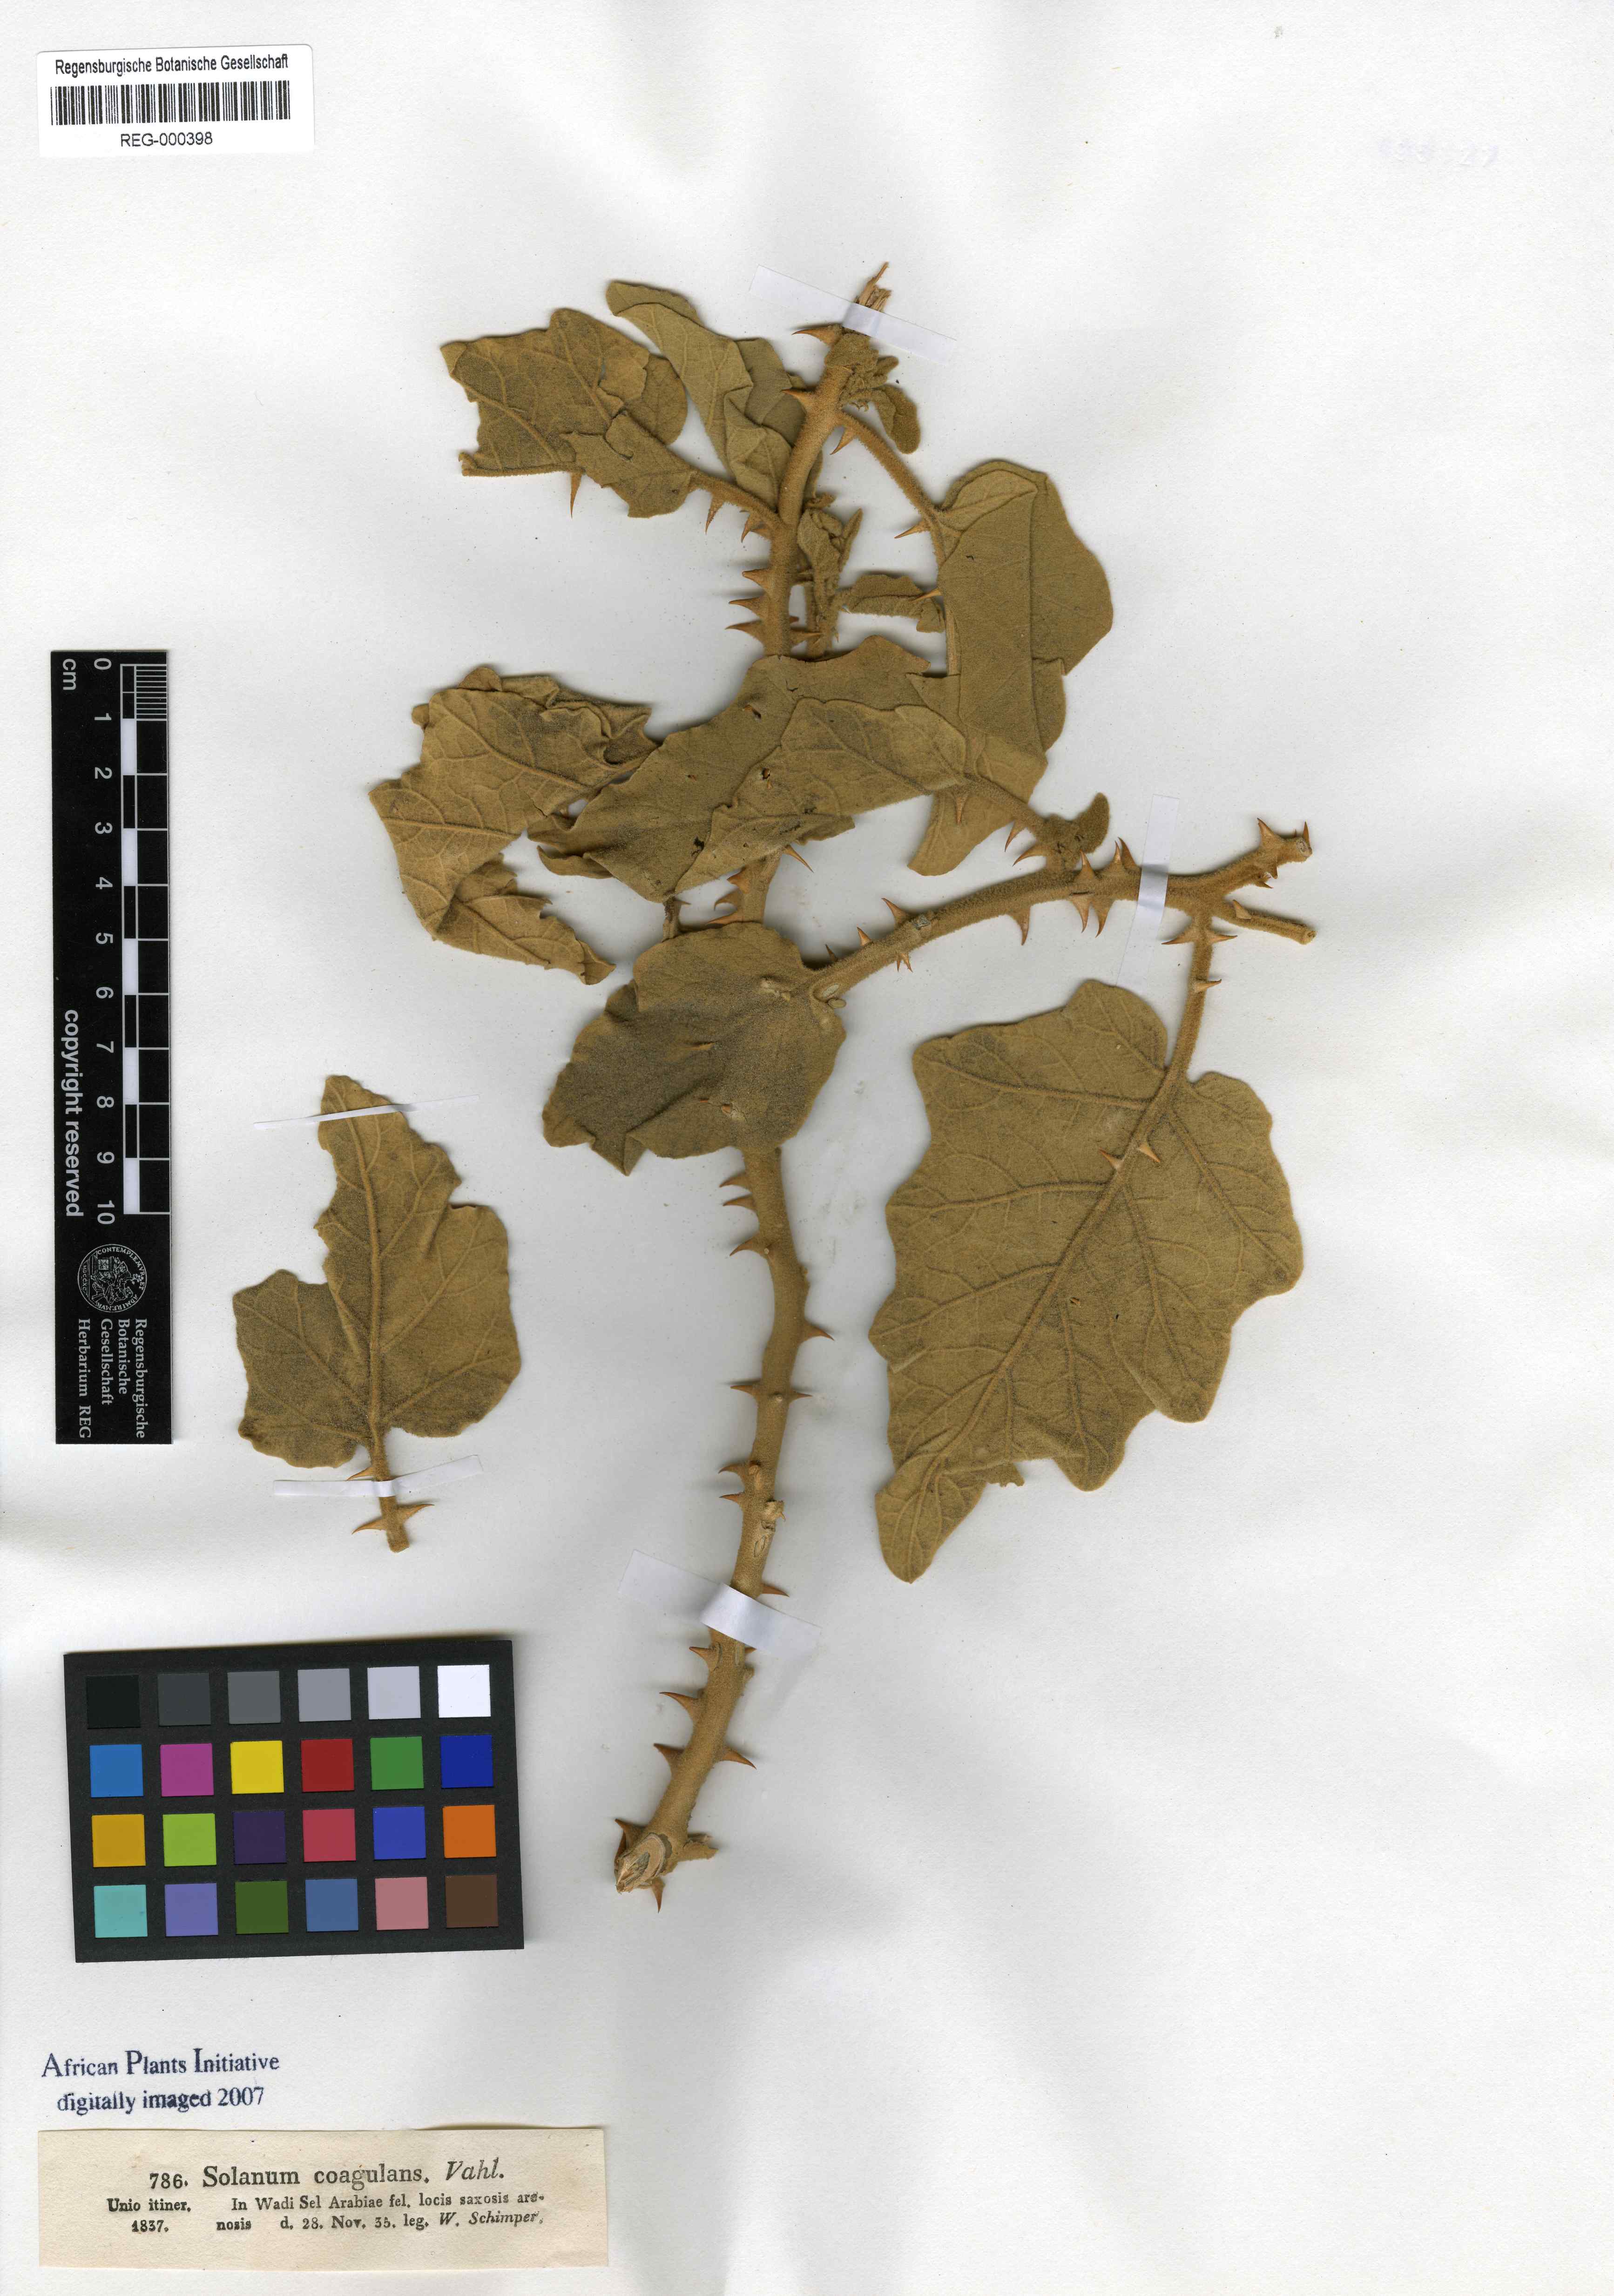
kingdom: Plantae
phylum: Tracheophyta
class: Magnoliopsida
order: Solanales
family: Solanaceae
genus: Solanum
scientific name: Solanum coagulans
